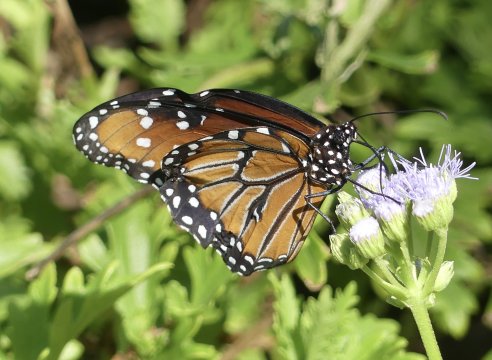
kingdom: Animalia
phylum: Arthropoda
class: Insecta
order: Lepidoptera
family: Nymphalidae
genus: Danaus
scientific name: Danaus gilippus
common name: Queen
